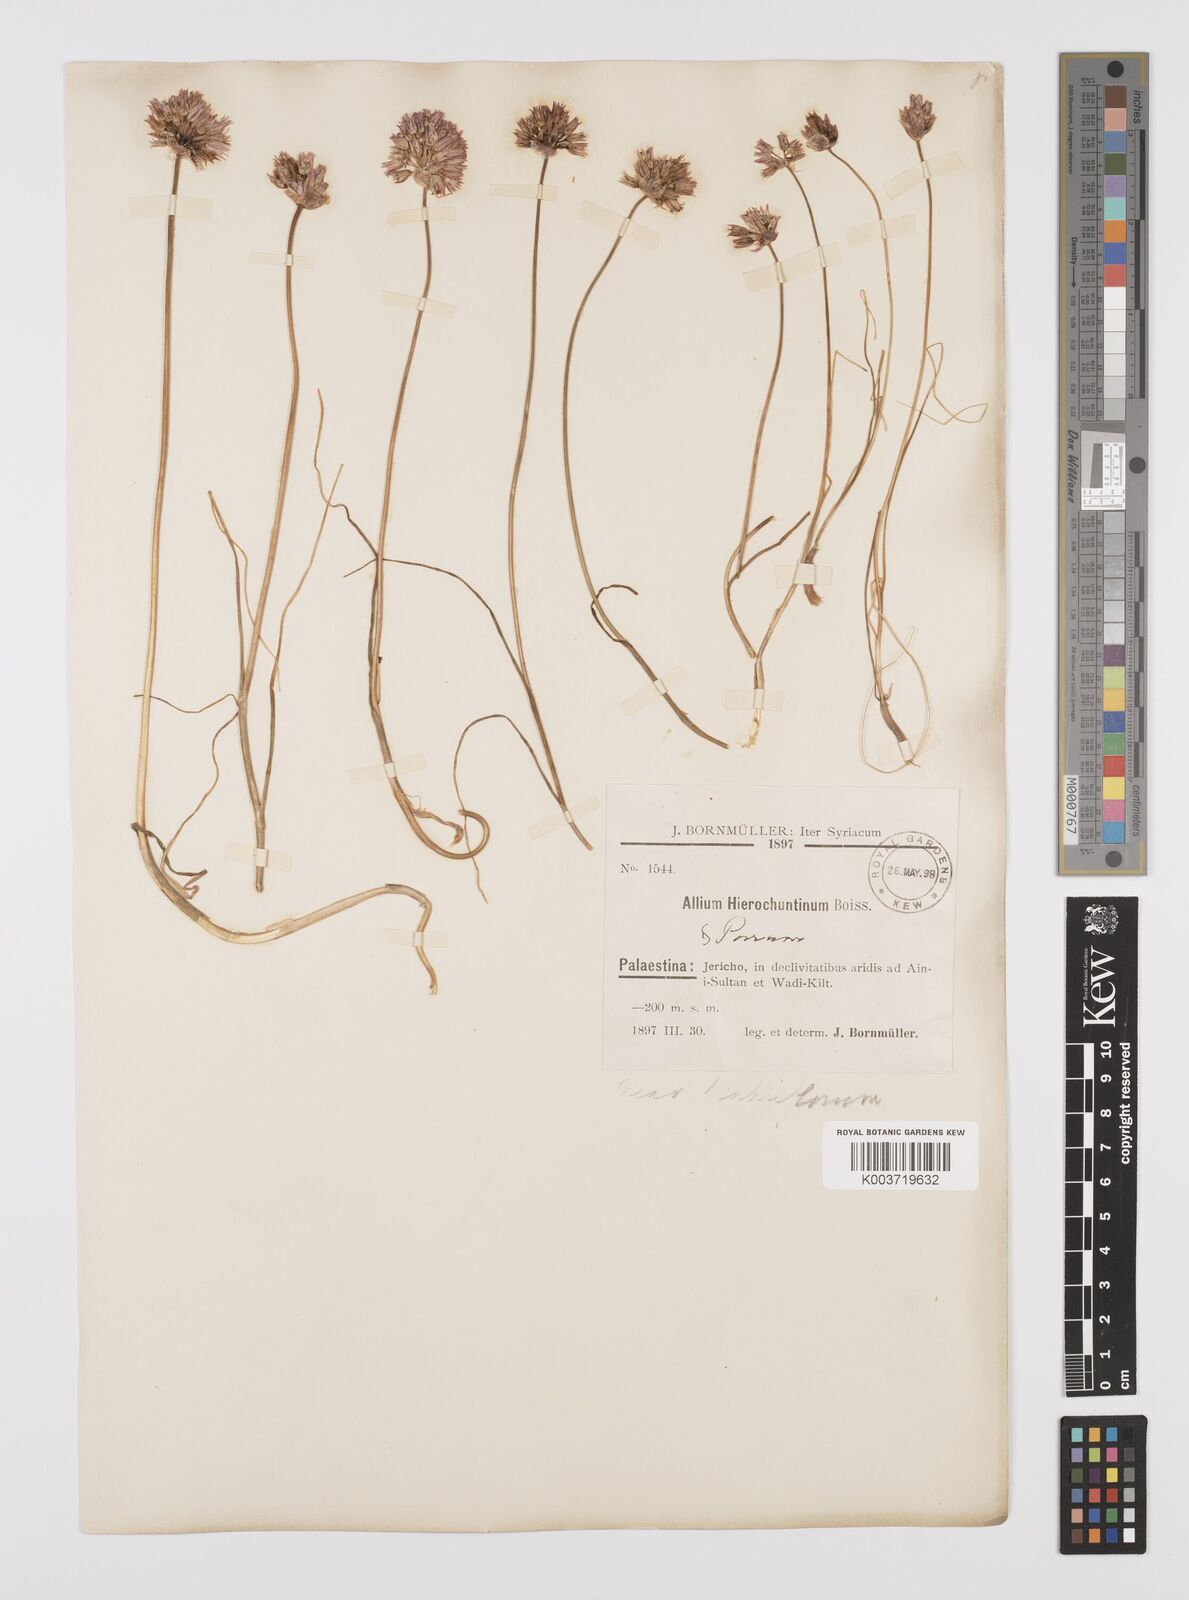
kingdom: Plantae
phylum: Tracheophyta
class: Liliopsida
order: Asparagales
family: Amaryllidaceae
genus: Allium
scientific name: Allium ascalonicum
